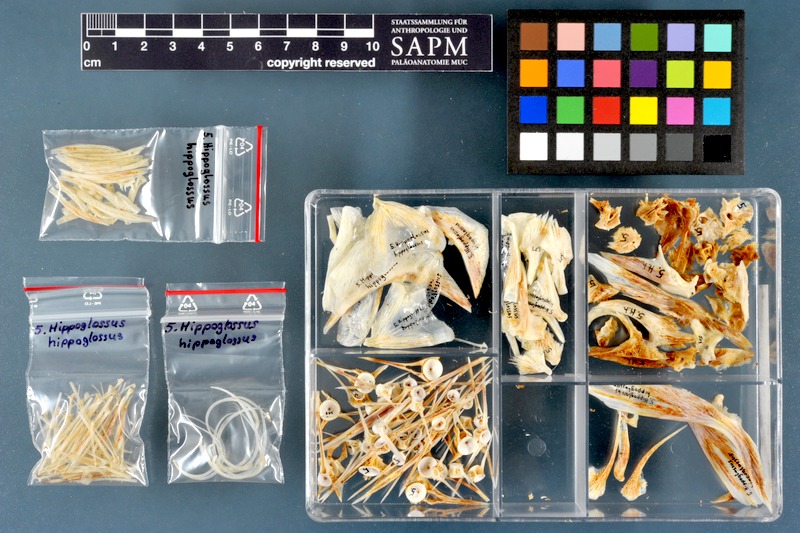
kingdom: Animalia
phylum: Chordata
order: Pleuronectiformes
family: Pleuronectidae
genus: Hippoglossus
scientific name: Hippoglossus hippoglossus
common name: Atlantic halibut
